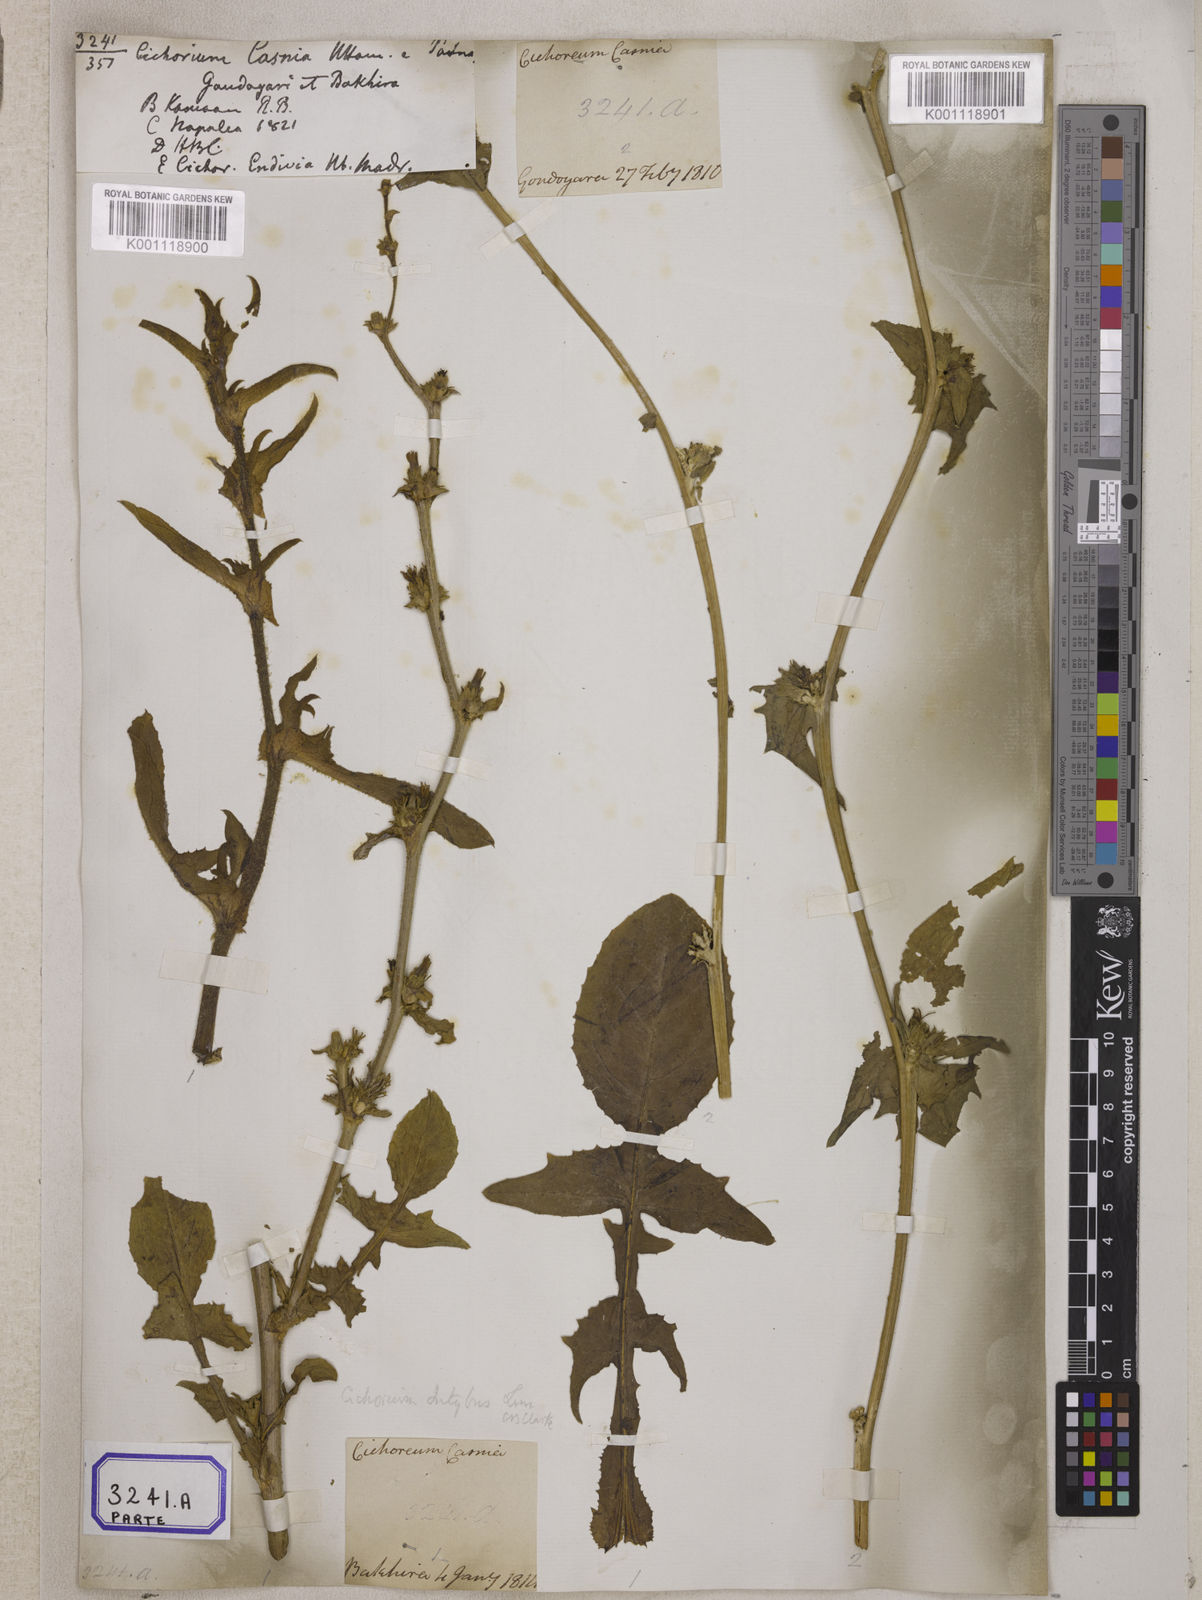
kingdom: Plantae
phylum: Tracheophyta
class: Magnoliopsida
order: Asterales
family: Asteraceae
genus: Cichorium
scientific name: Cichorium intybus
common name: Chicory
